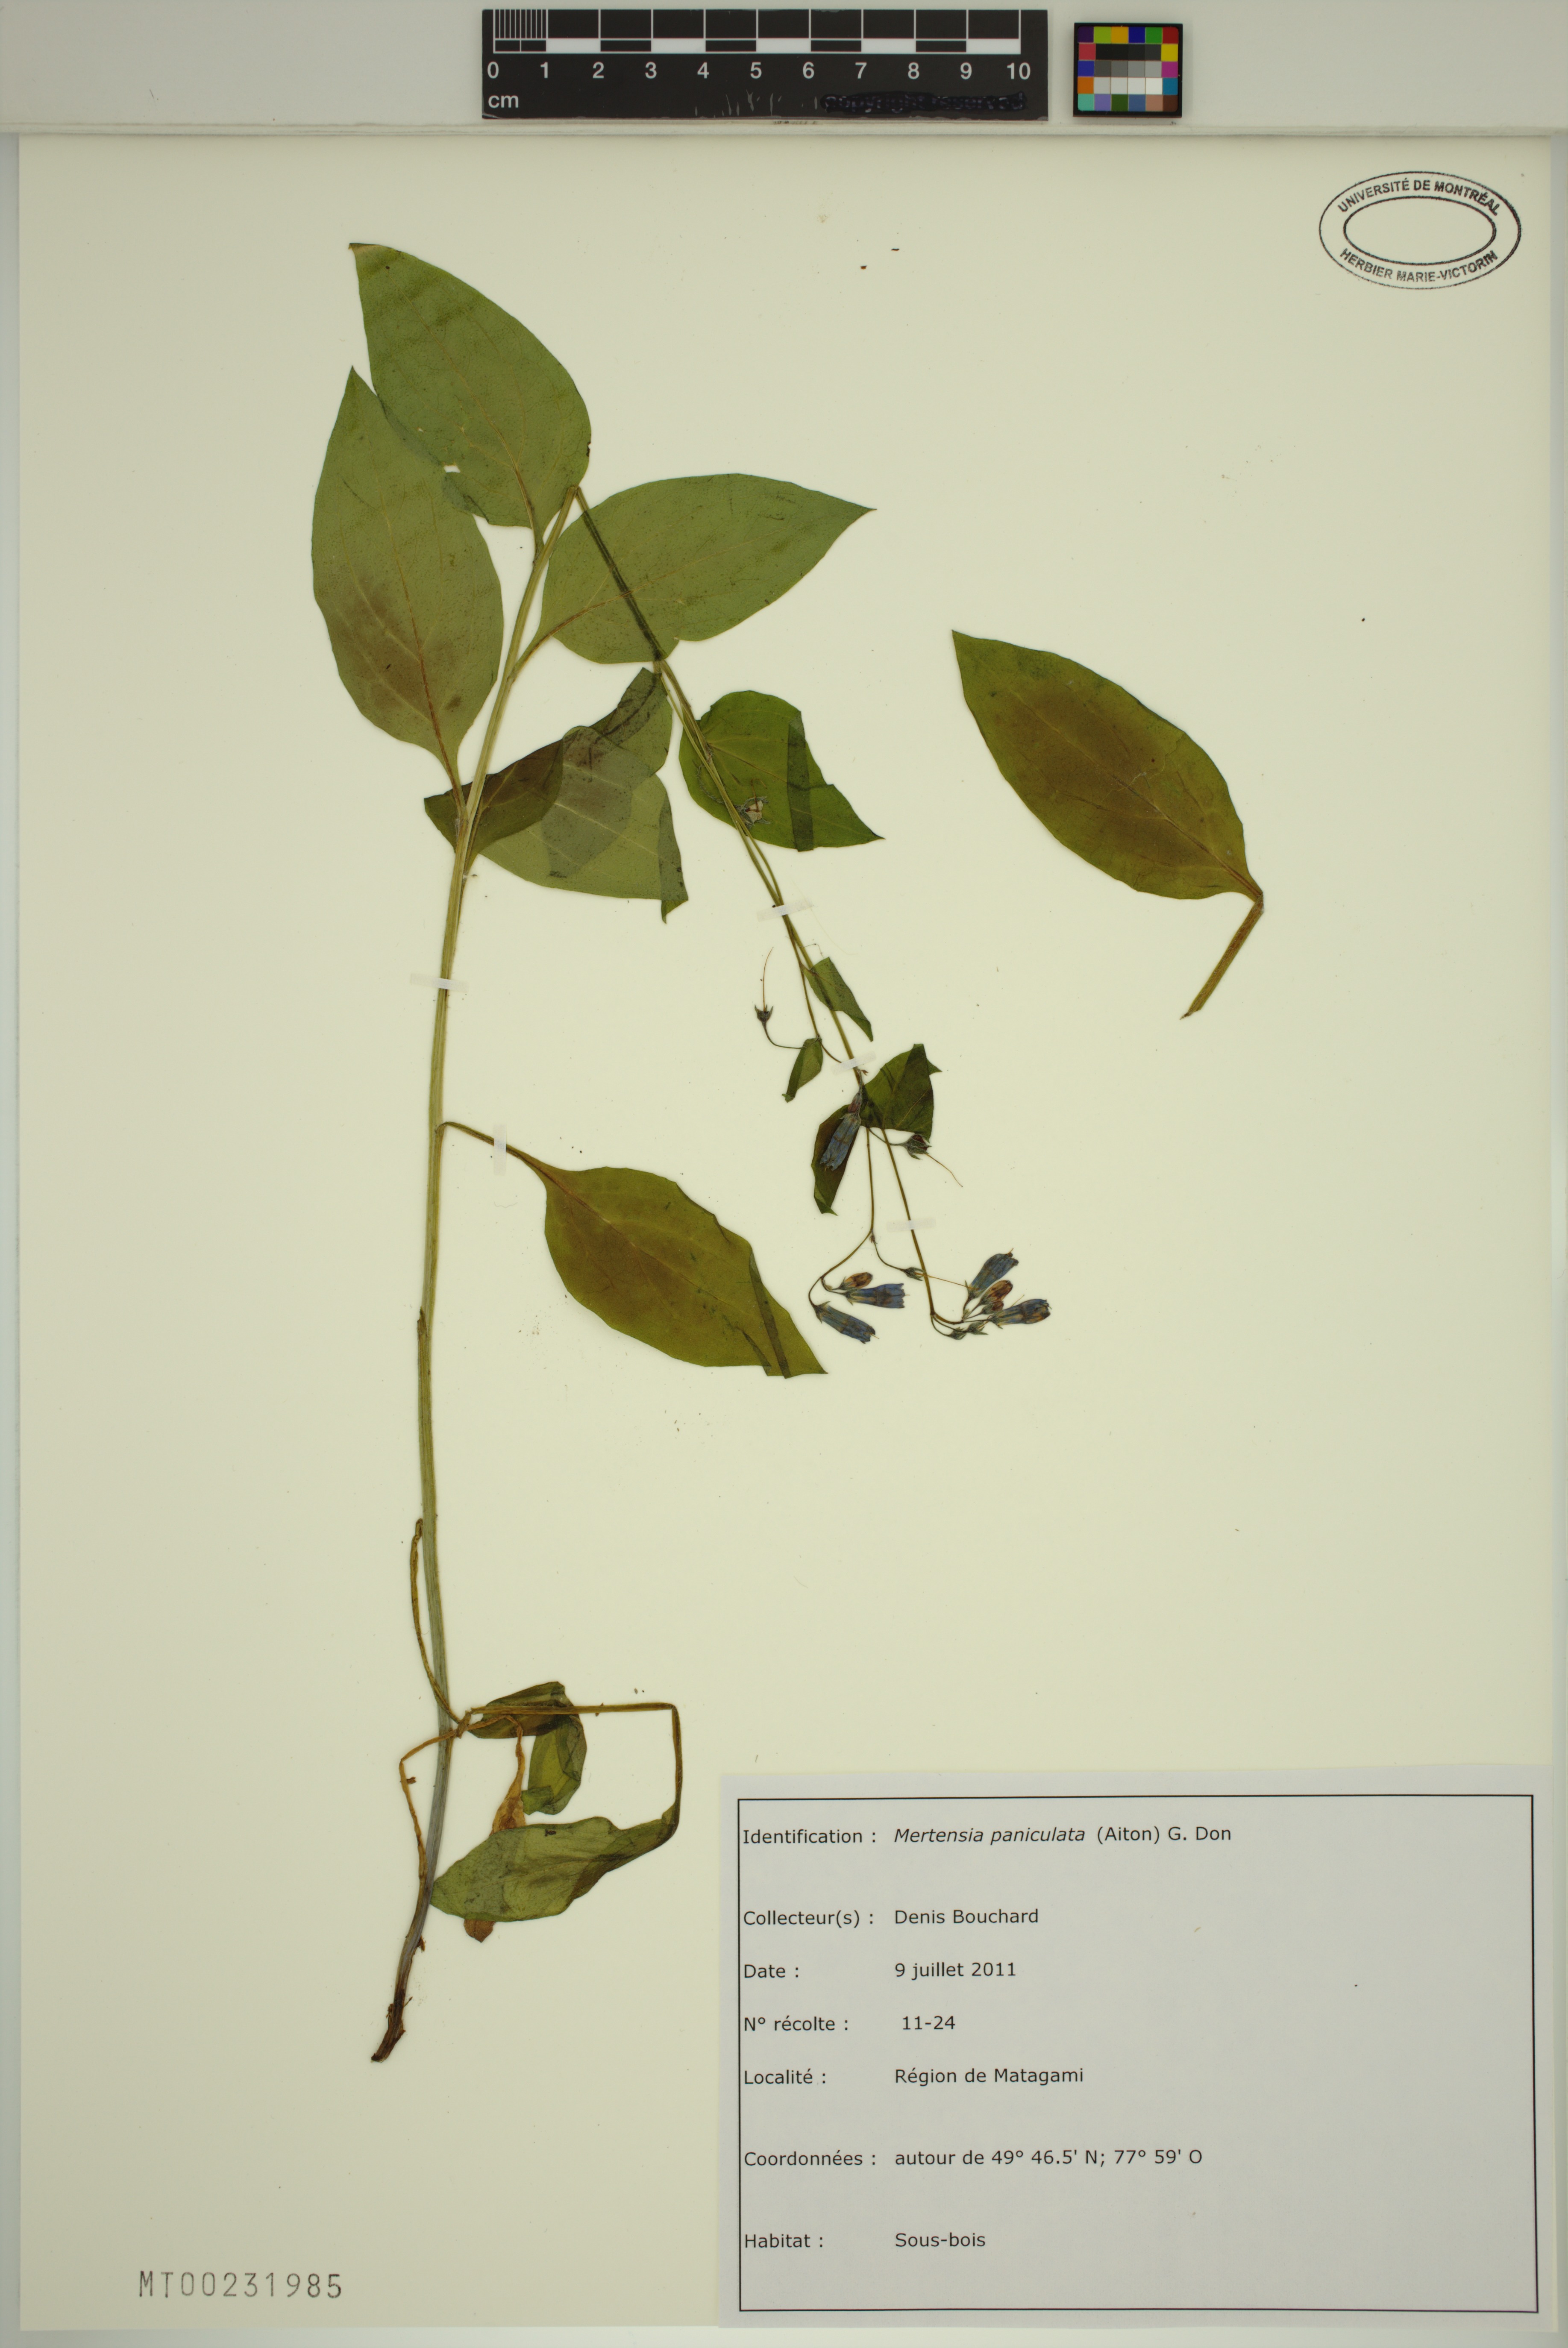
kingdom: Plantae
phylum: Tracheophyta
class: Magnoliopsida
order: Boraginales
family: Boraginaceae
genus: Mertensia
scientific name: Mertensia paniculata
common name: Panicled bluebells
